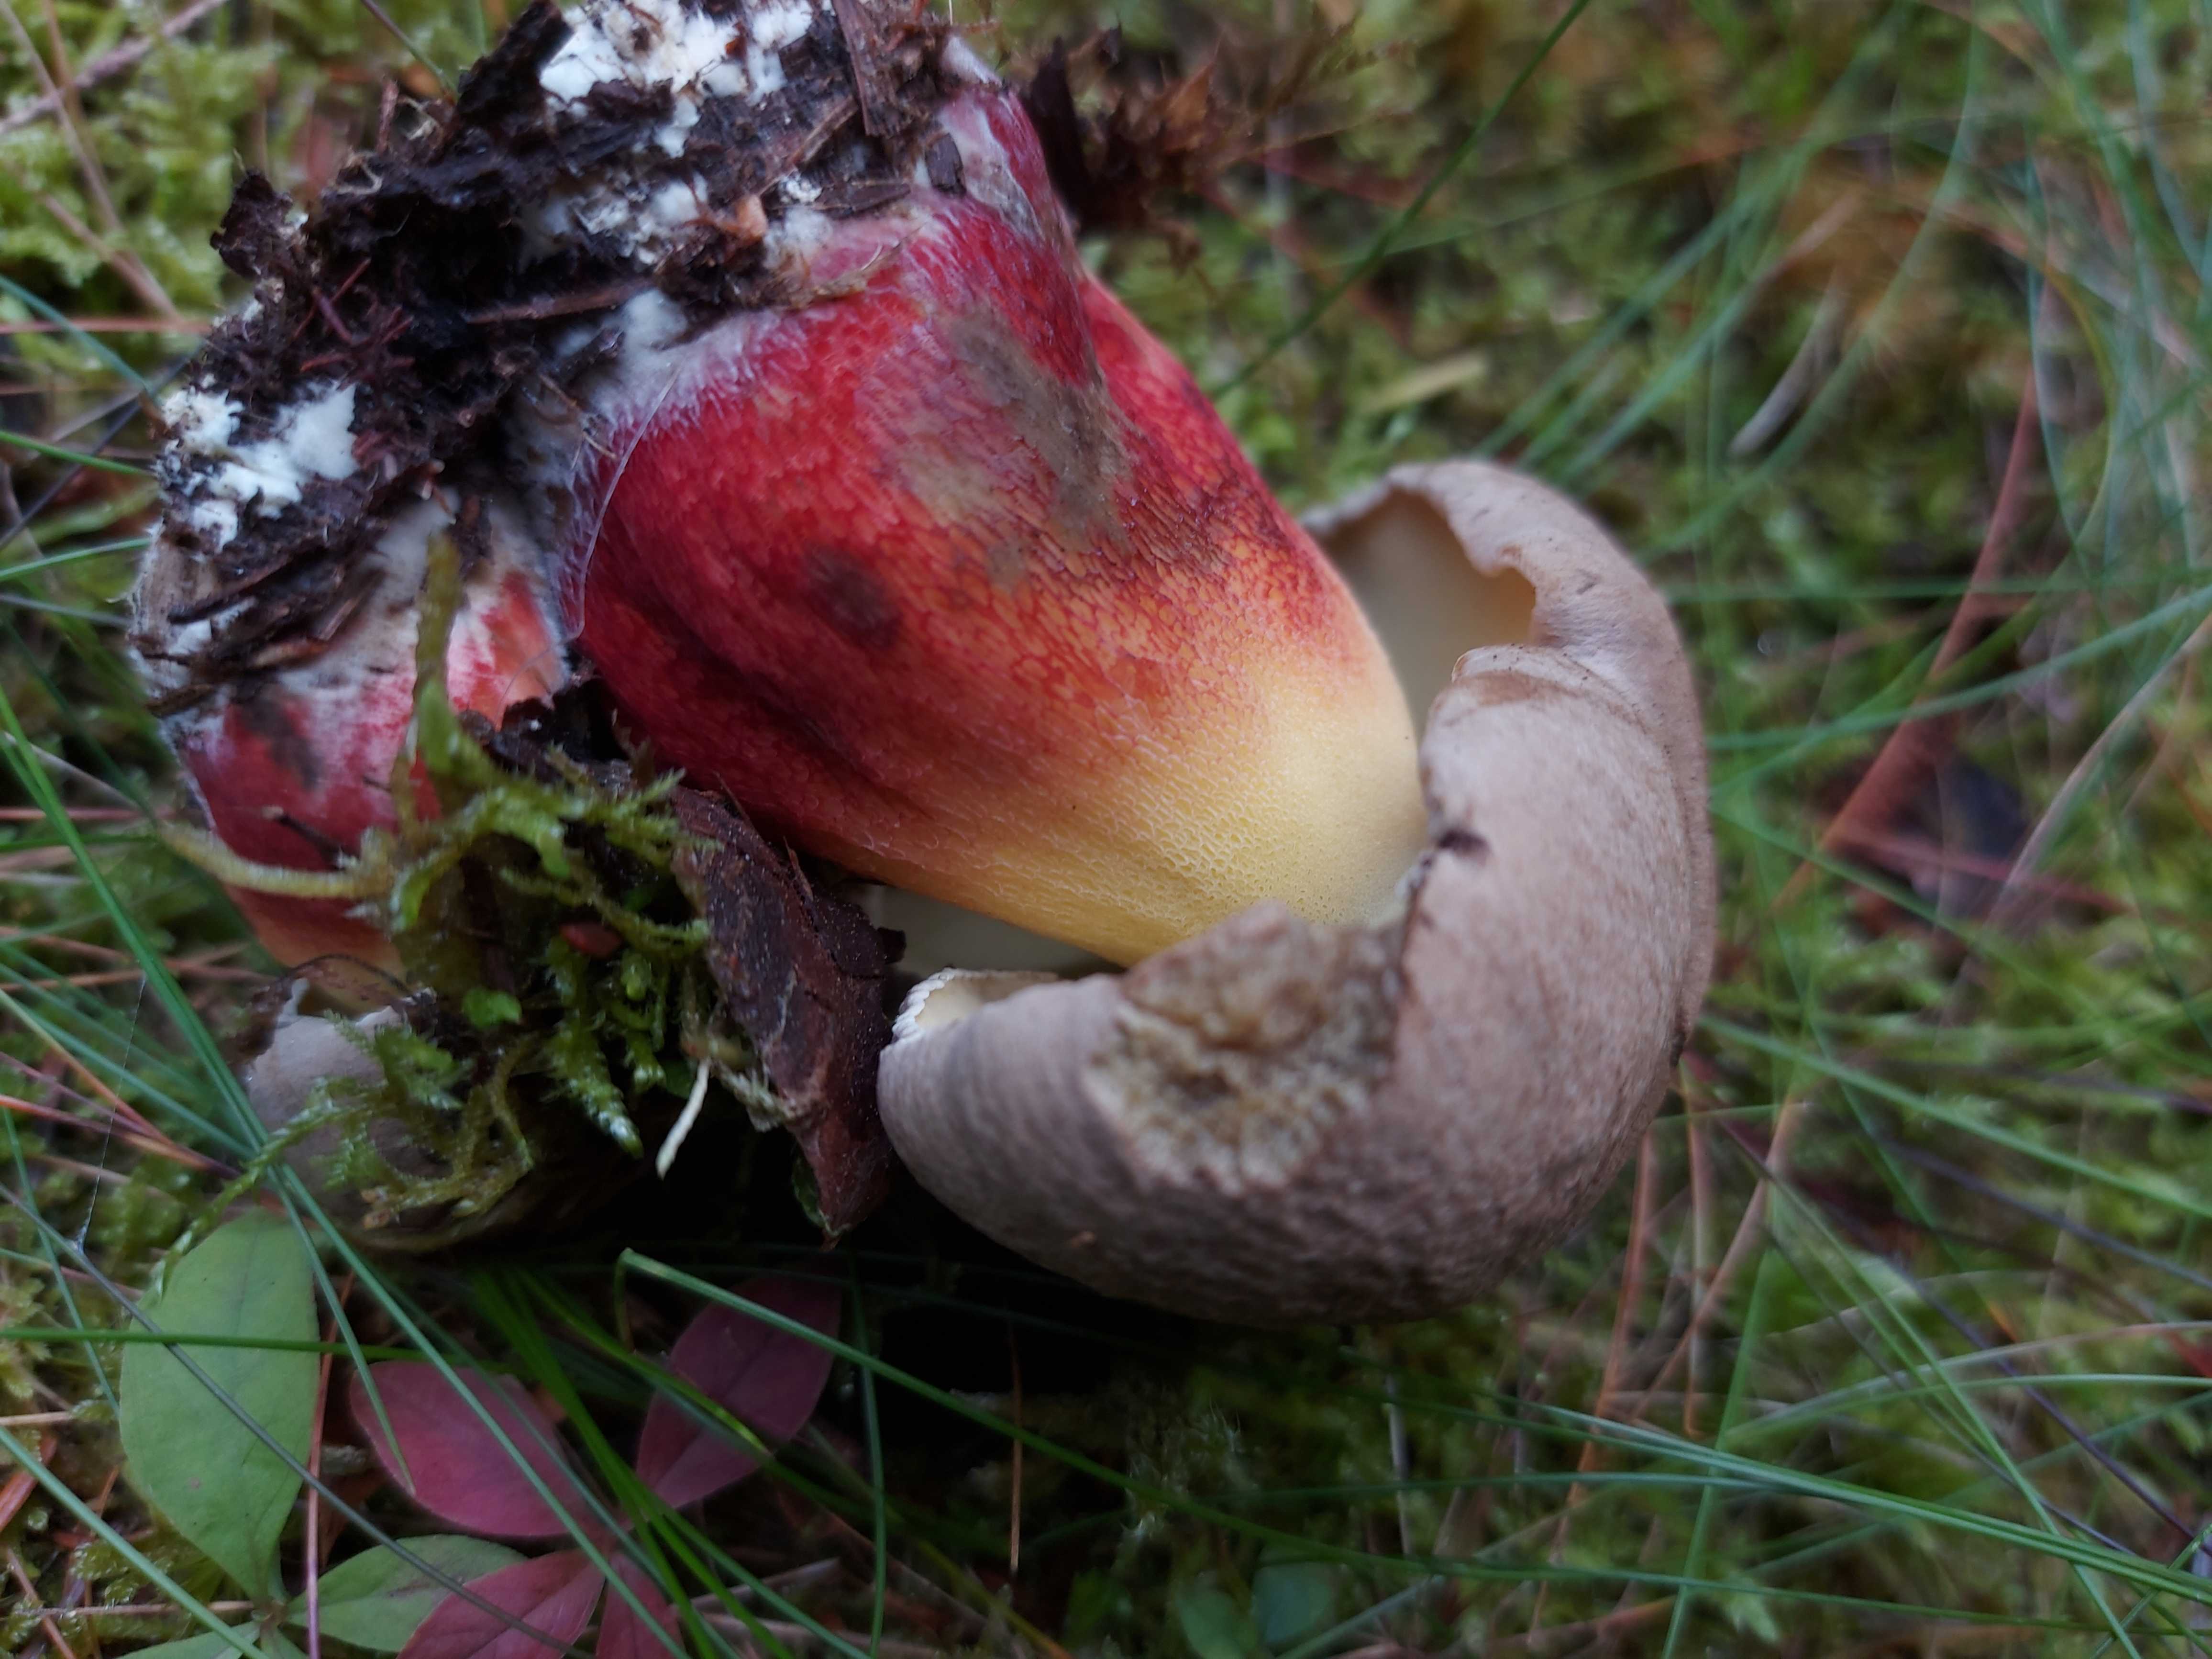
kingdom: Fungi
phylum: Basidiomycota
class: Agaricomycetes
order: Boletales
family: Boletaceae
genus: Caloboletus
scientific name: Caloboletus calopus
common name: skønfodet rørhat
